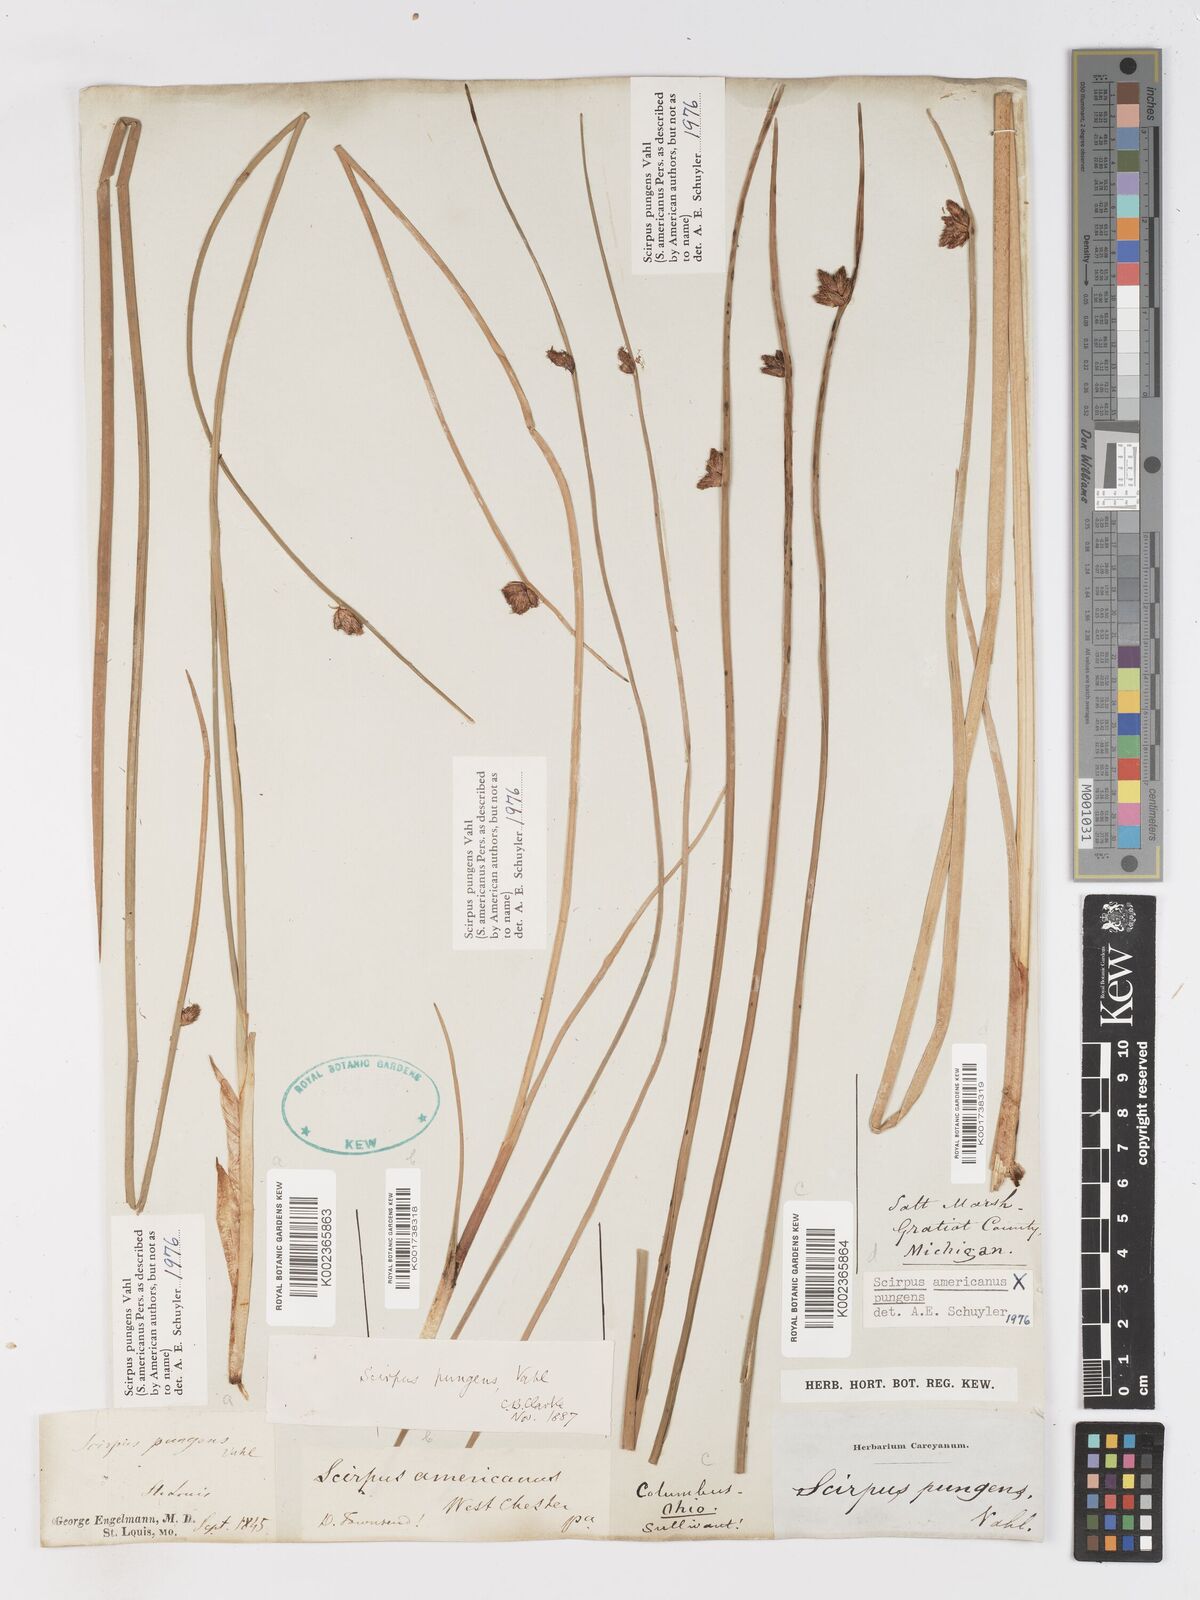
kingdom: Plantae
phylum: Tracheophyta
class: Liliopsida
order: Poales
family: Cyperaceae
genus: Schoenoplectus
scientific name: Schoenoplectus pungens
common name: Sharp club-rush
